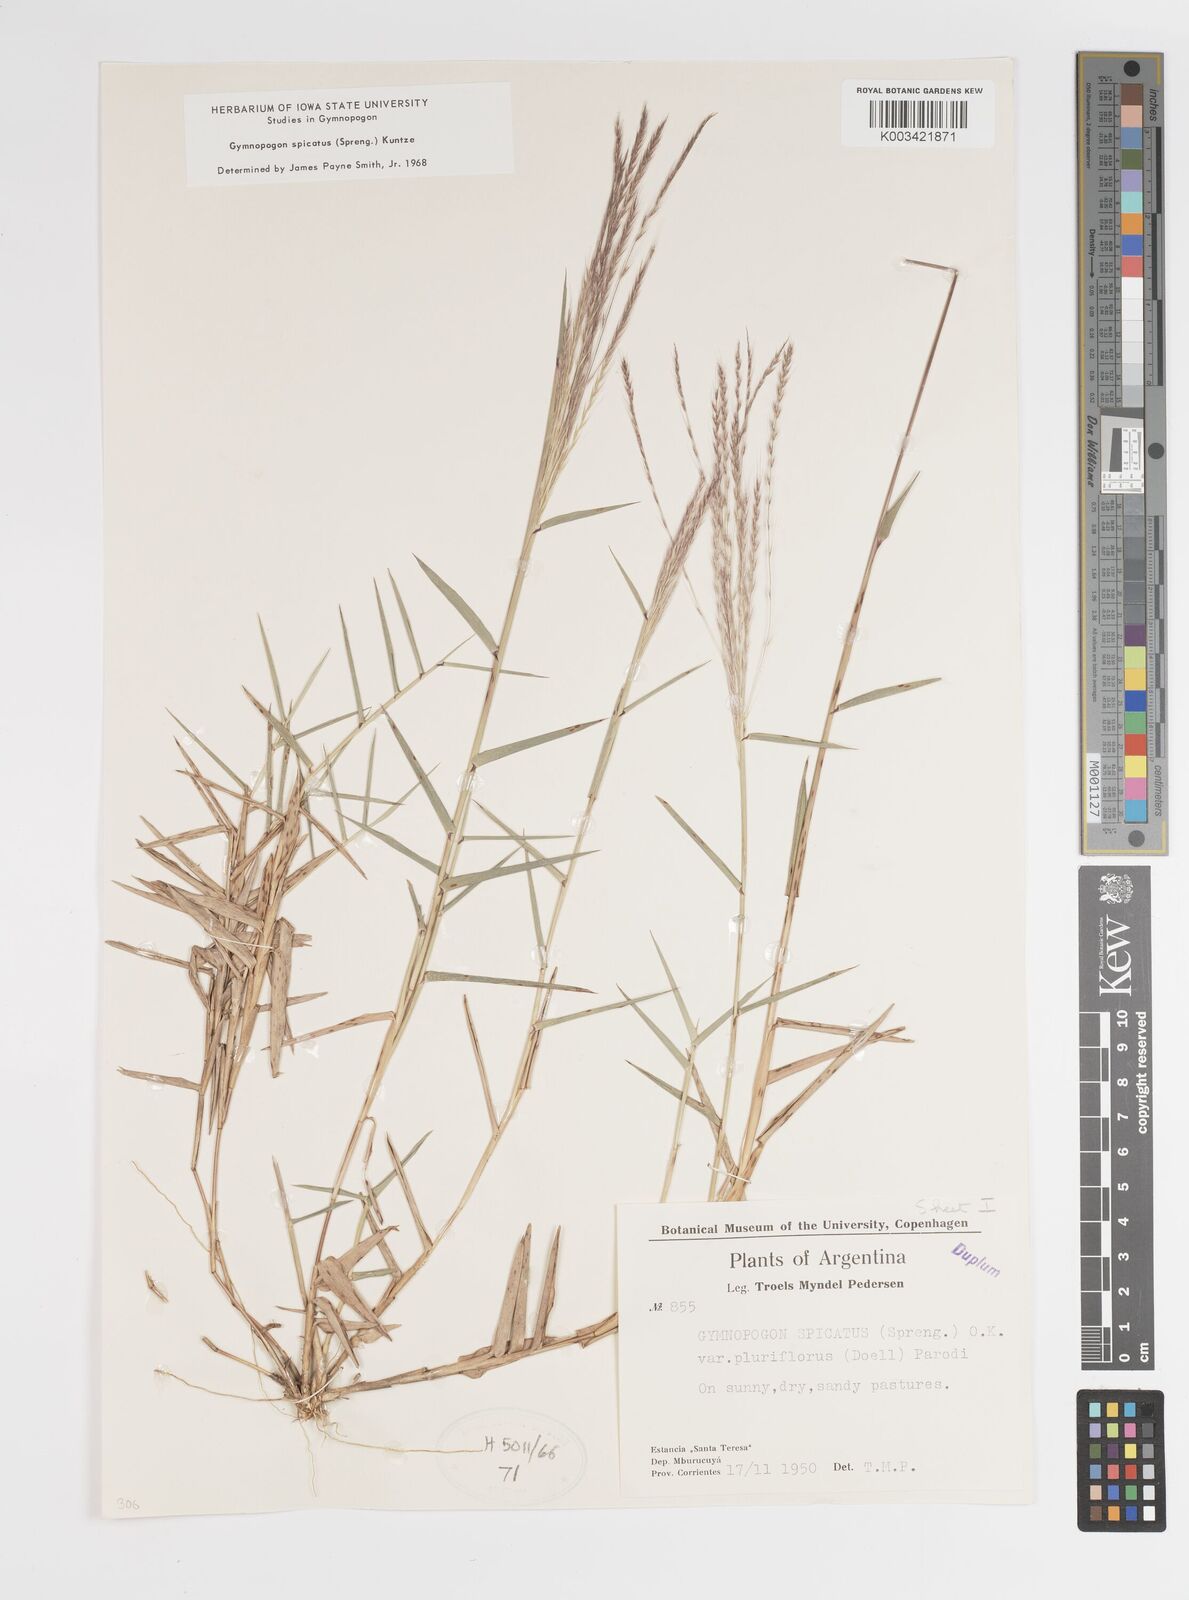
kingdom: Plantae
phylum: Tracheophyta
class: Liliopsida
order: Poales
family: Poaceae
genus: Gymnopogon
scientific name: Gymnopogon spicatus
